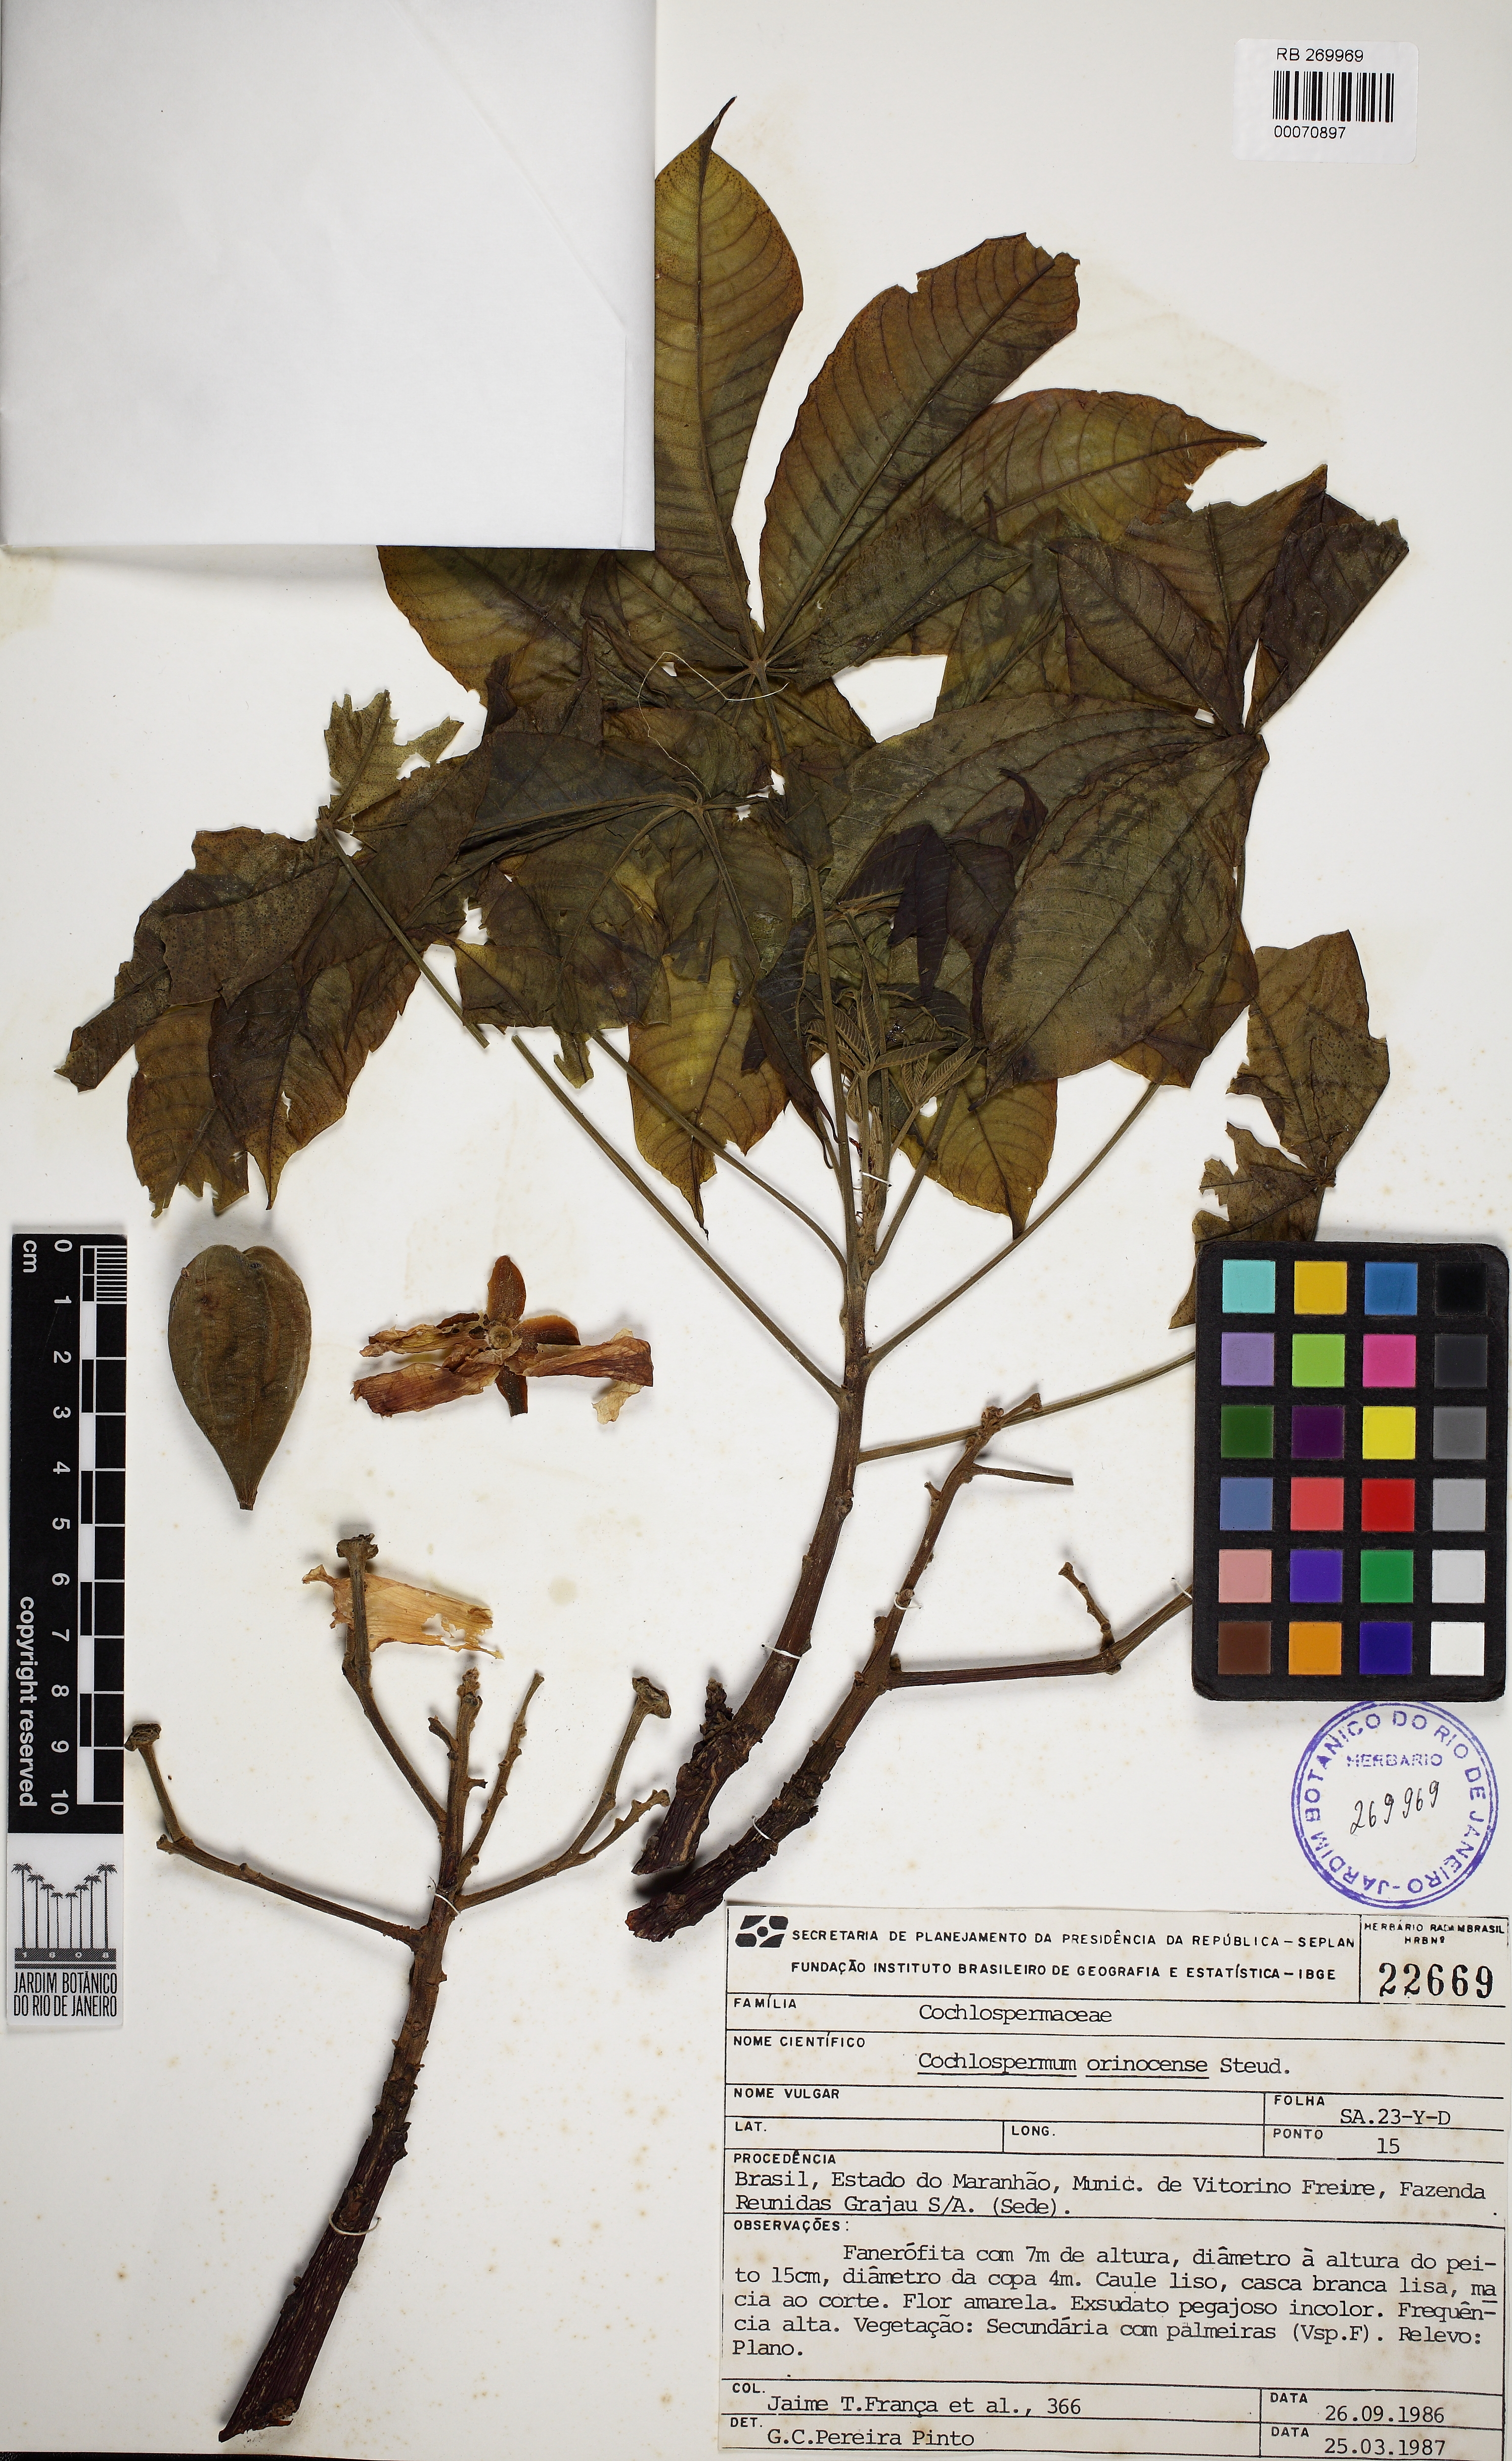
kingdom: Plantae
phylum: Tracheophyta
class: Magnoliopsida
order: Malvales
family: Cochlospermaceae
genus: Cochlospermum
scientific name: Cochlospermum orinocense
